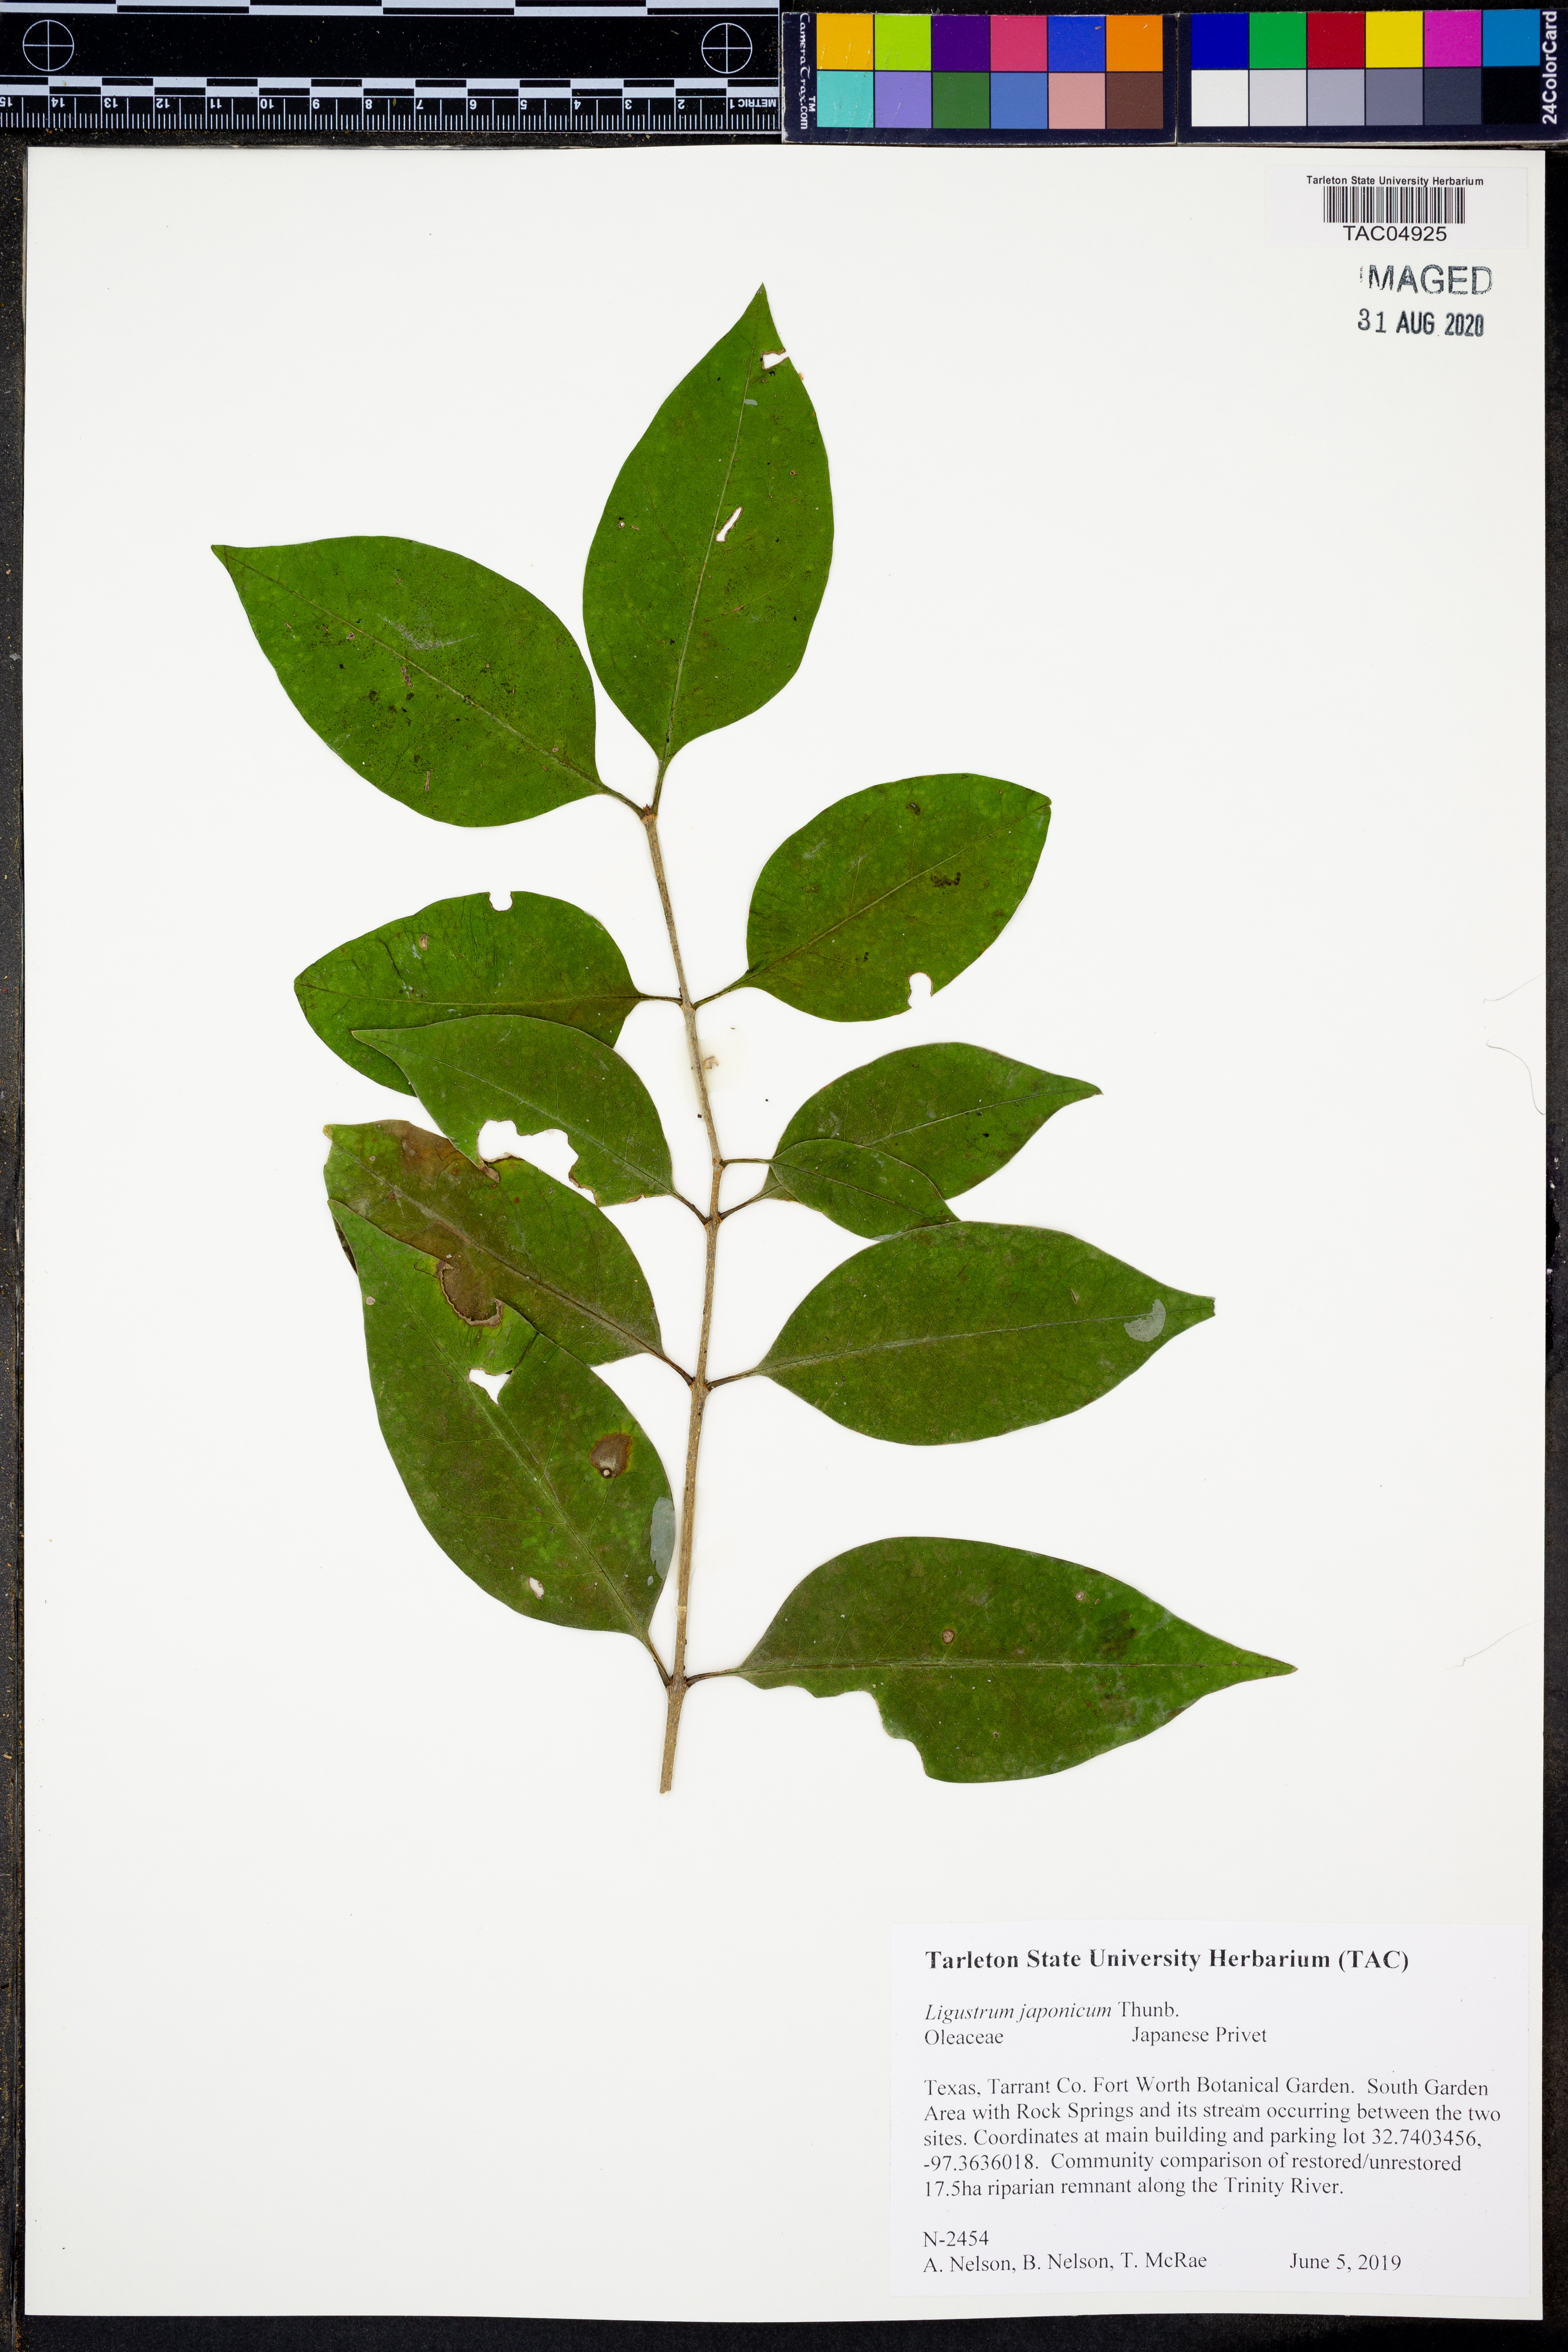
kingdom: Plantae
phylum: Tracheophyta
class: Magnoliopsida
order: Lamiales
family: Oleaceae
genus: Ligustrum
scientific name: Ligustrum japonicum
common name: Japanese privet
